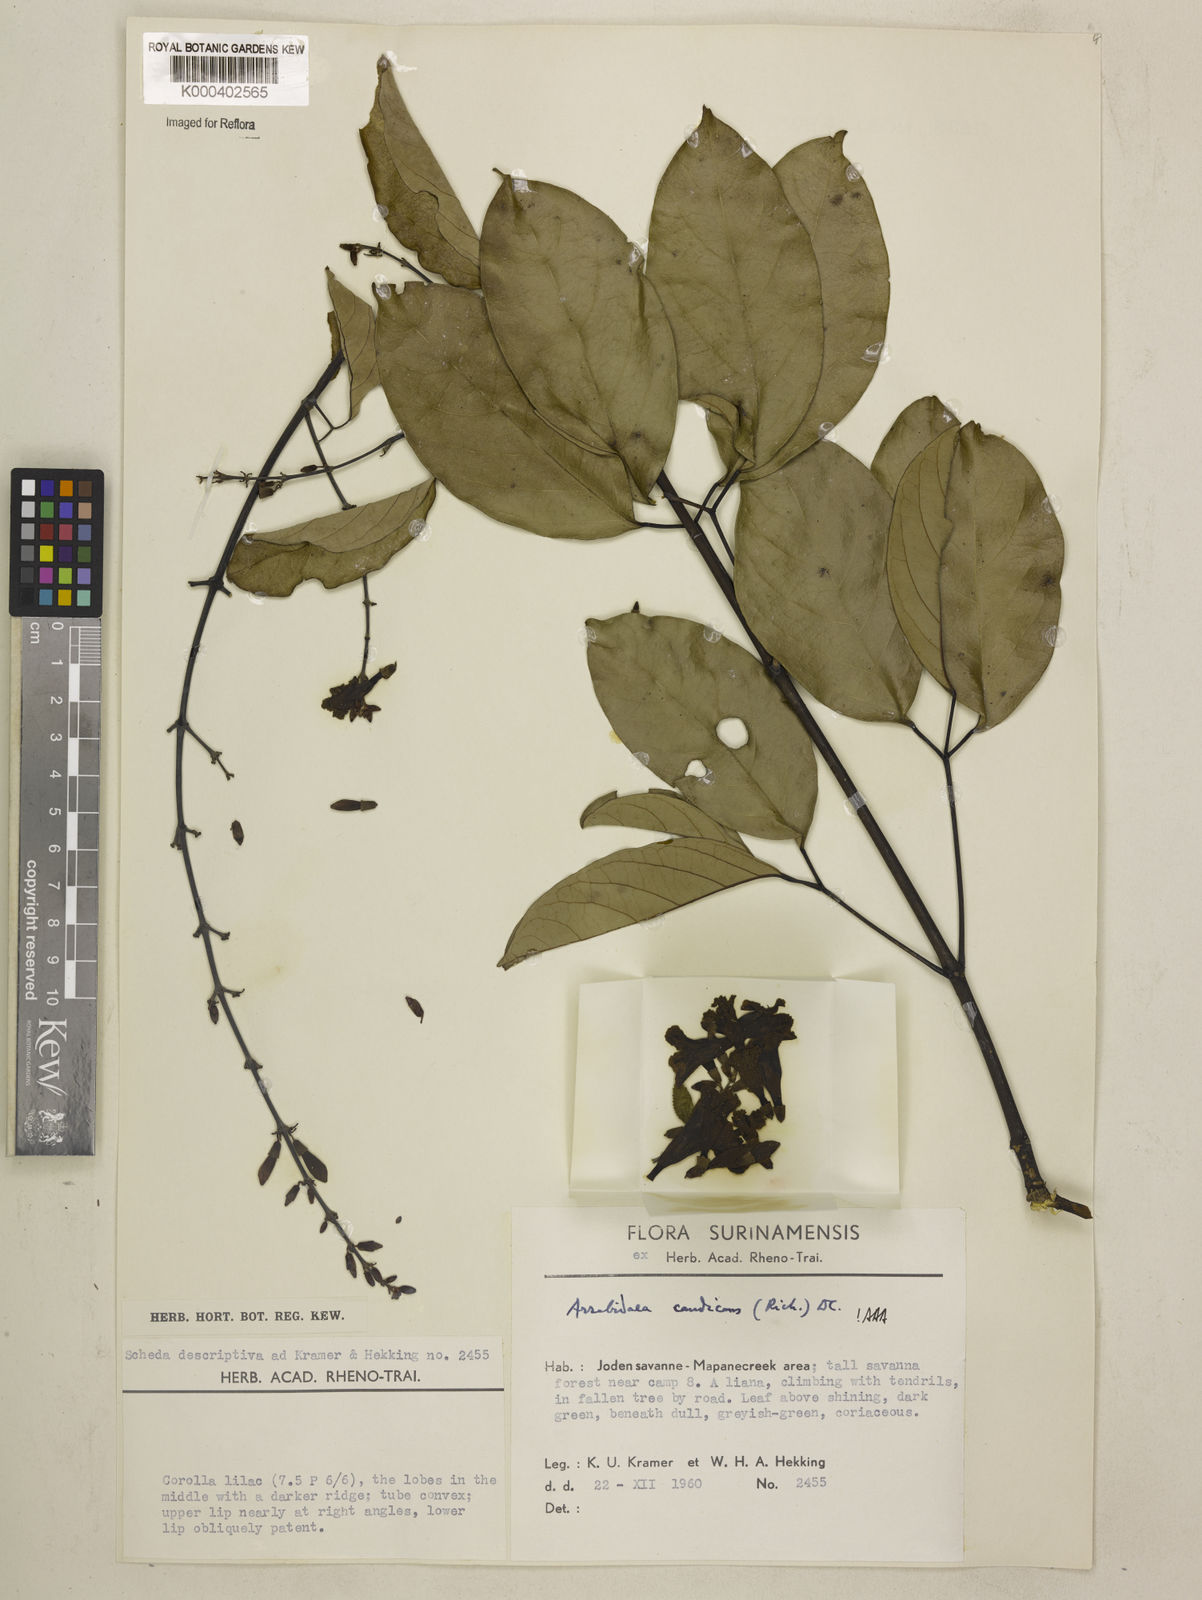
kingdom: Plantae
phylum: Tracheophyta
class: Magnoliopsida
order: Lamiales
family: Bignoniaceae
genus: Fridericia
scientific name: Fridericia candicans
